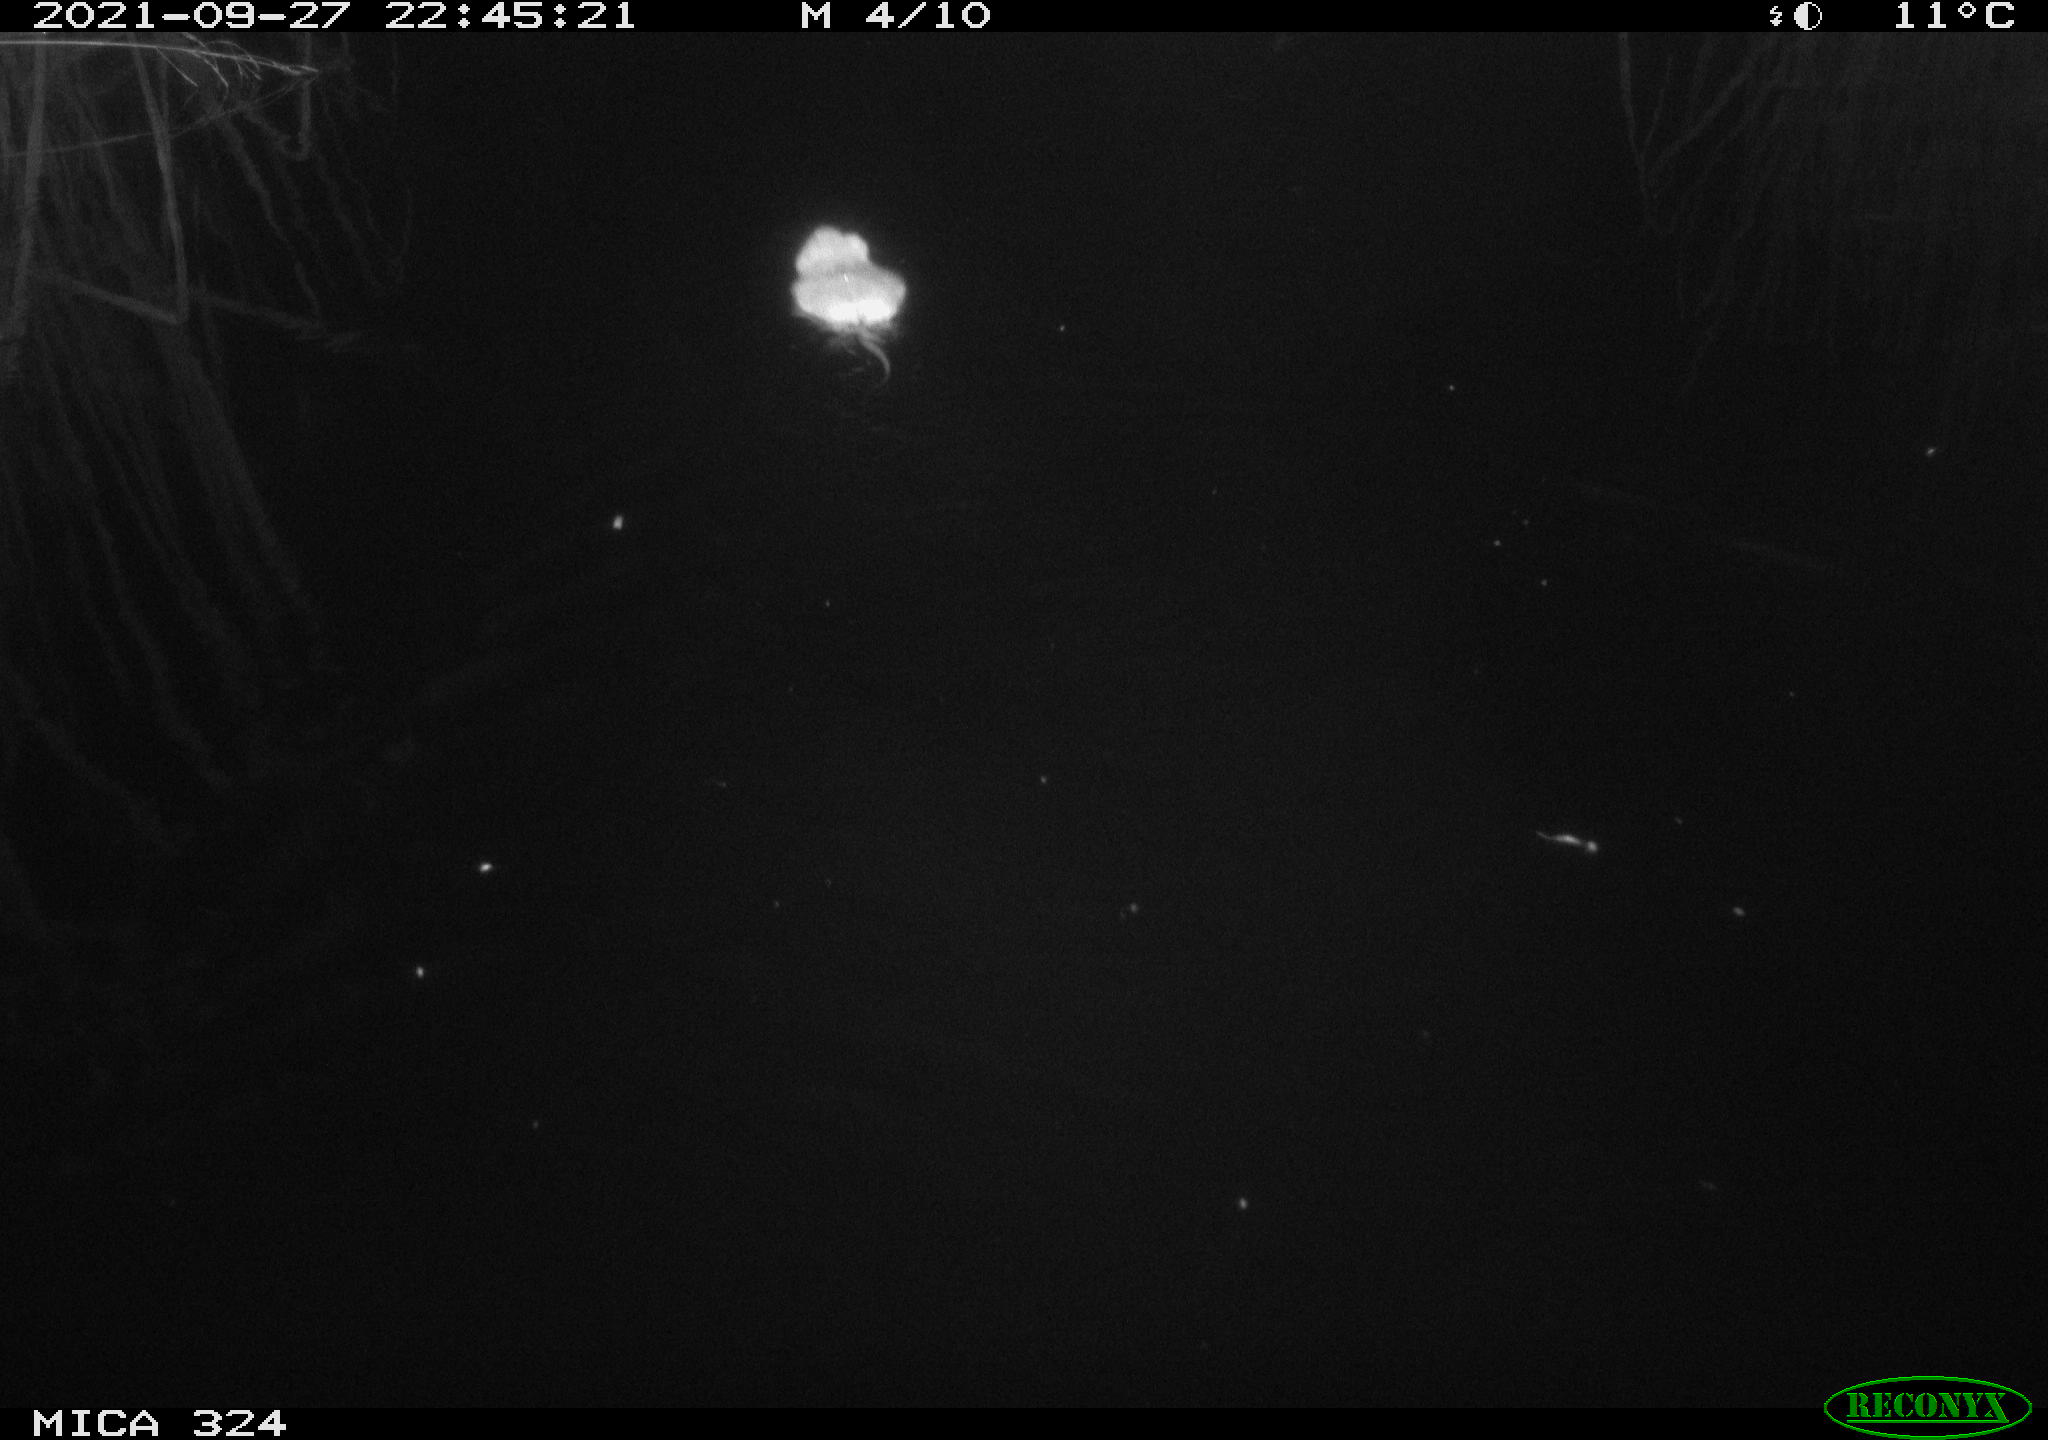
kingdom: Animalia
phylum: Chordata
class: Mammalia
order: Rodentia
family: Cricetidae
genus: Ondatra
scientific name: Ondatra zibethicus
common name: Muskrat
